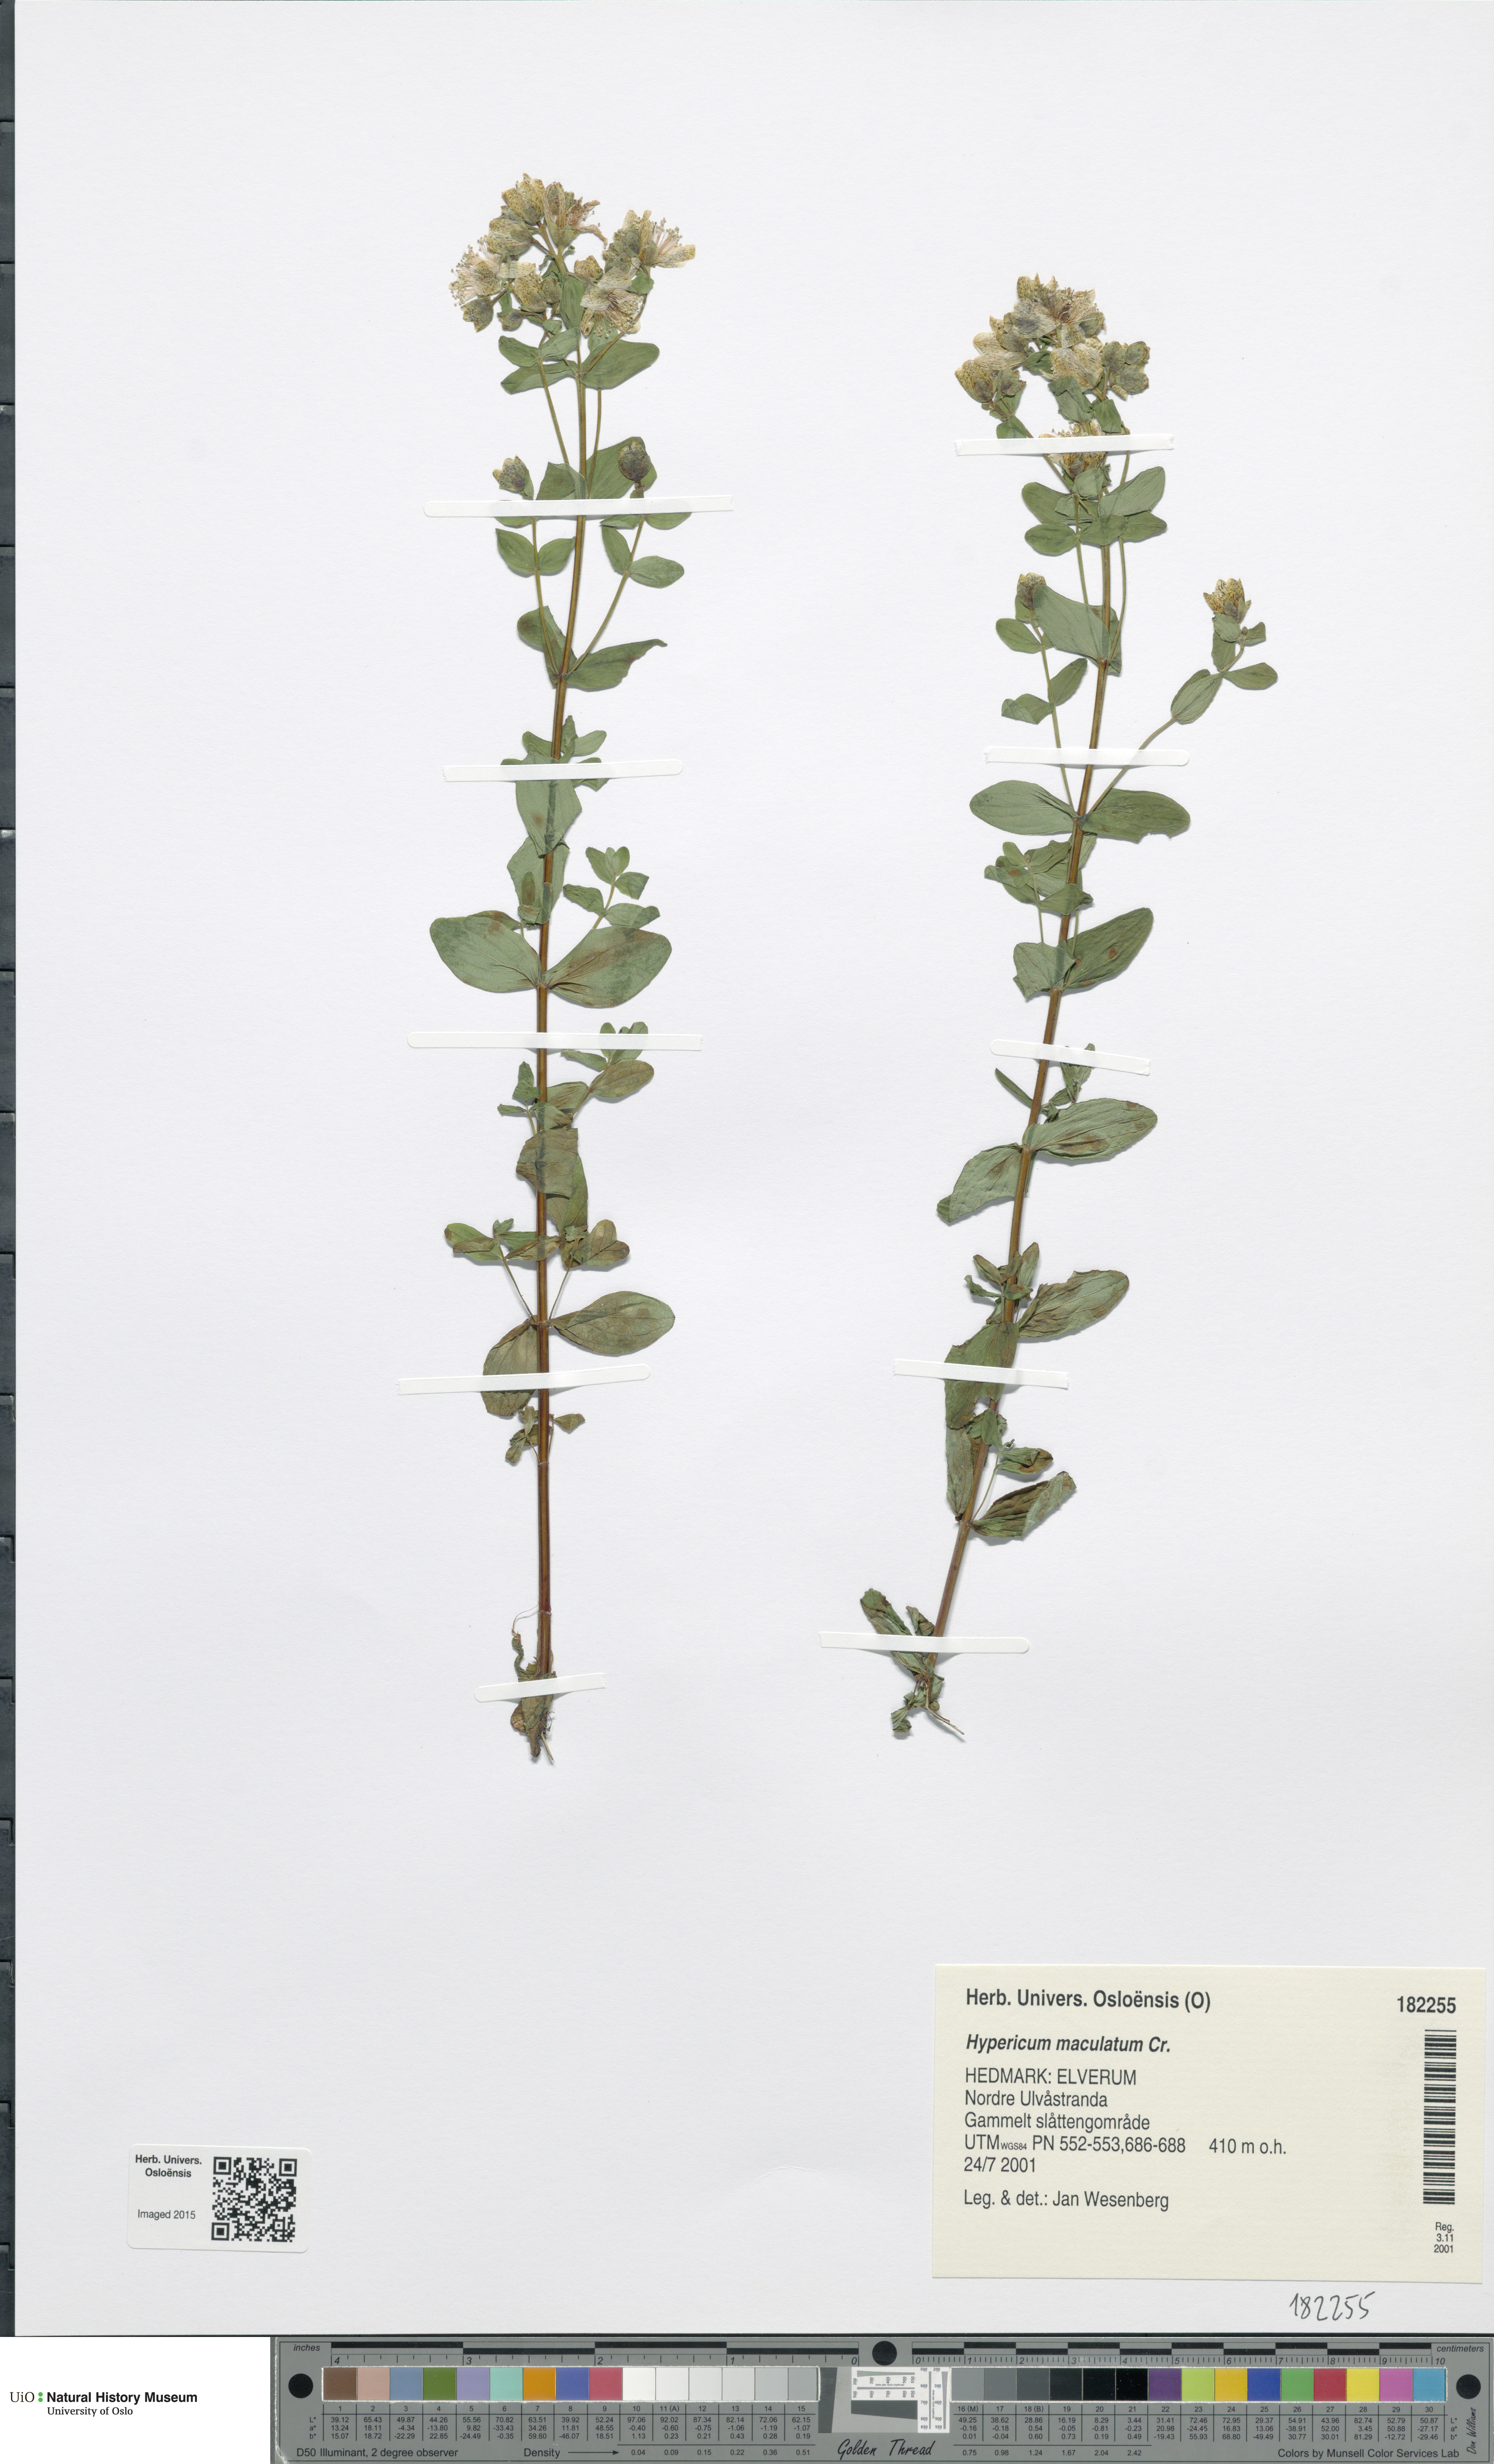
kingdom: Plantae
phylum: Tracheophyta
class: Magnoliopsida
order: Malpighiales
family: Hypericaceae
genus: Hypericum
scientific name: Hypericum maculatum
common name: Imperforate st. john's-wort
